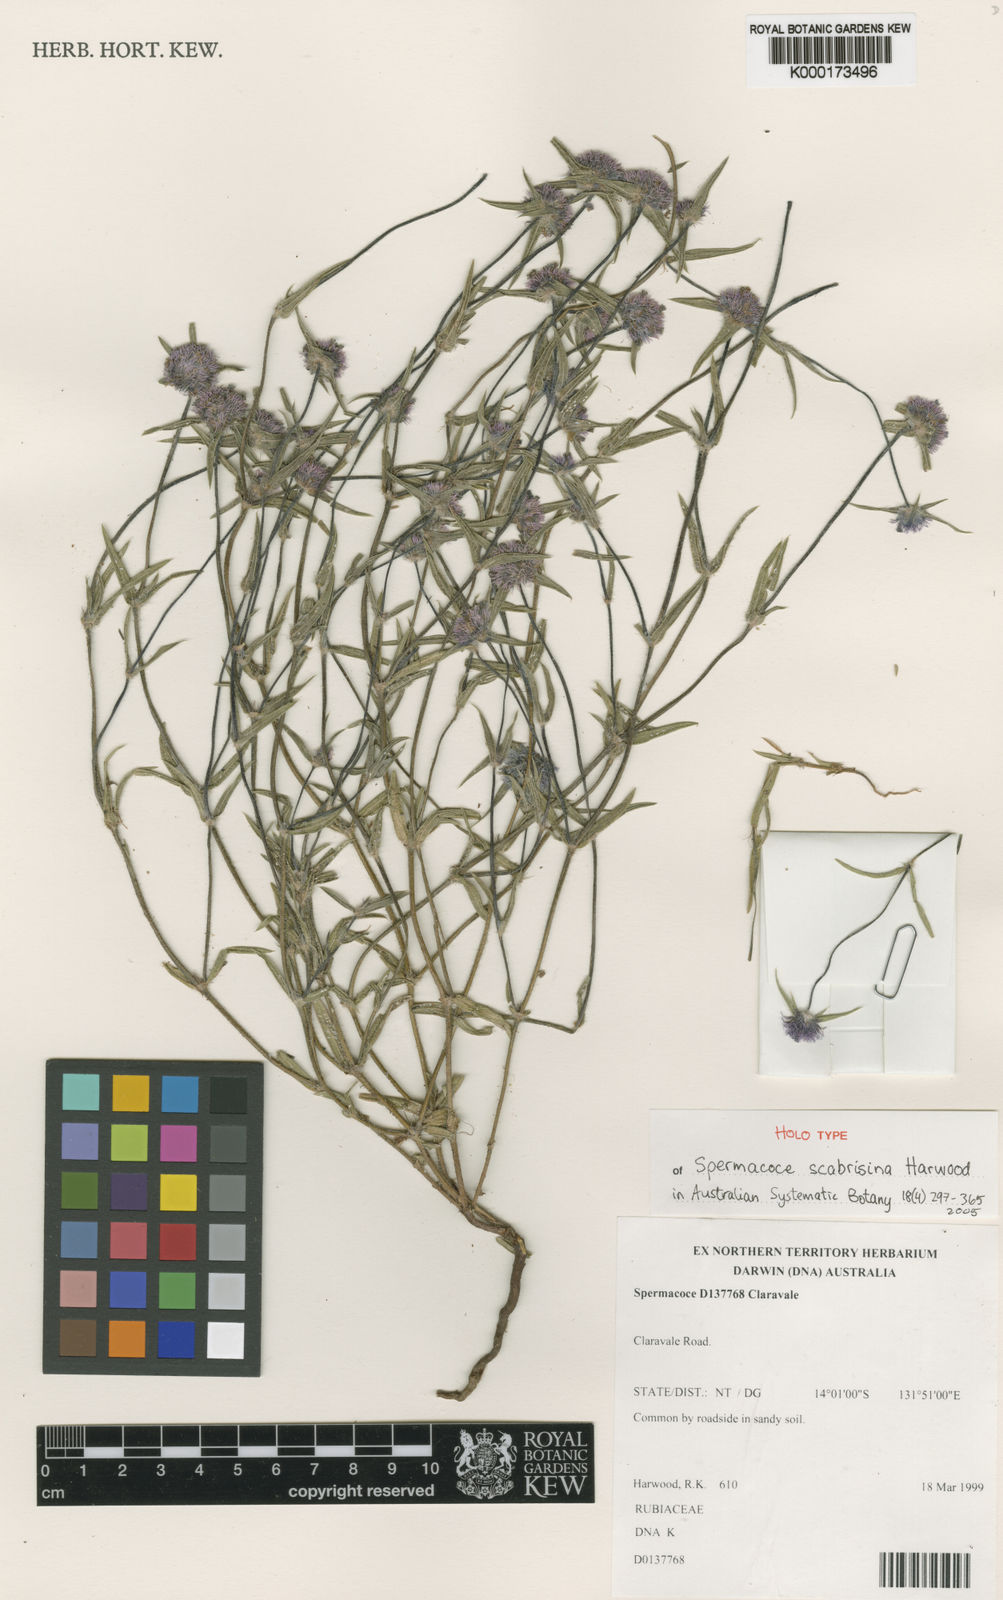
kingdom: Plantae
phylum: Tracheophyta
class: Magnoliopsida
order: Gentianales
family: Rubiaceae
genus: Spermacoce
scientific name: Spermacoce scabrisina
